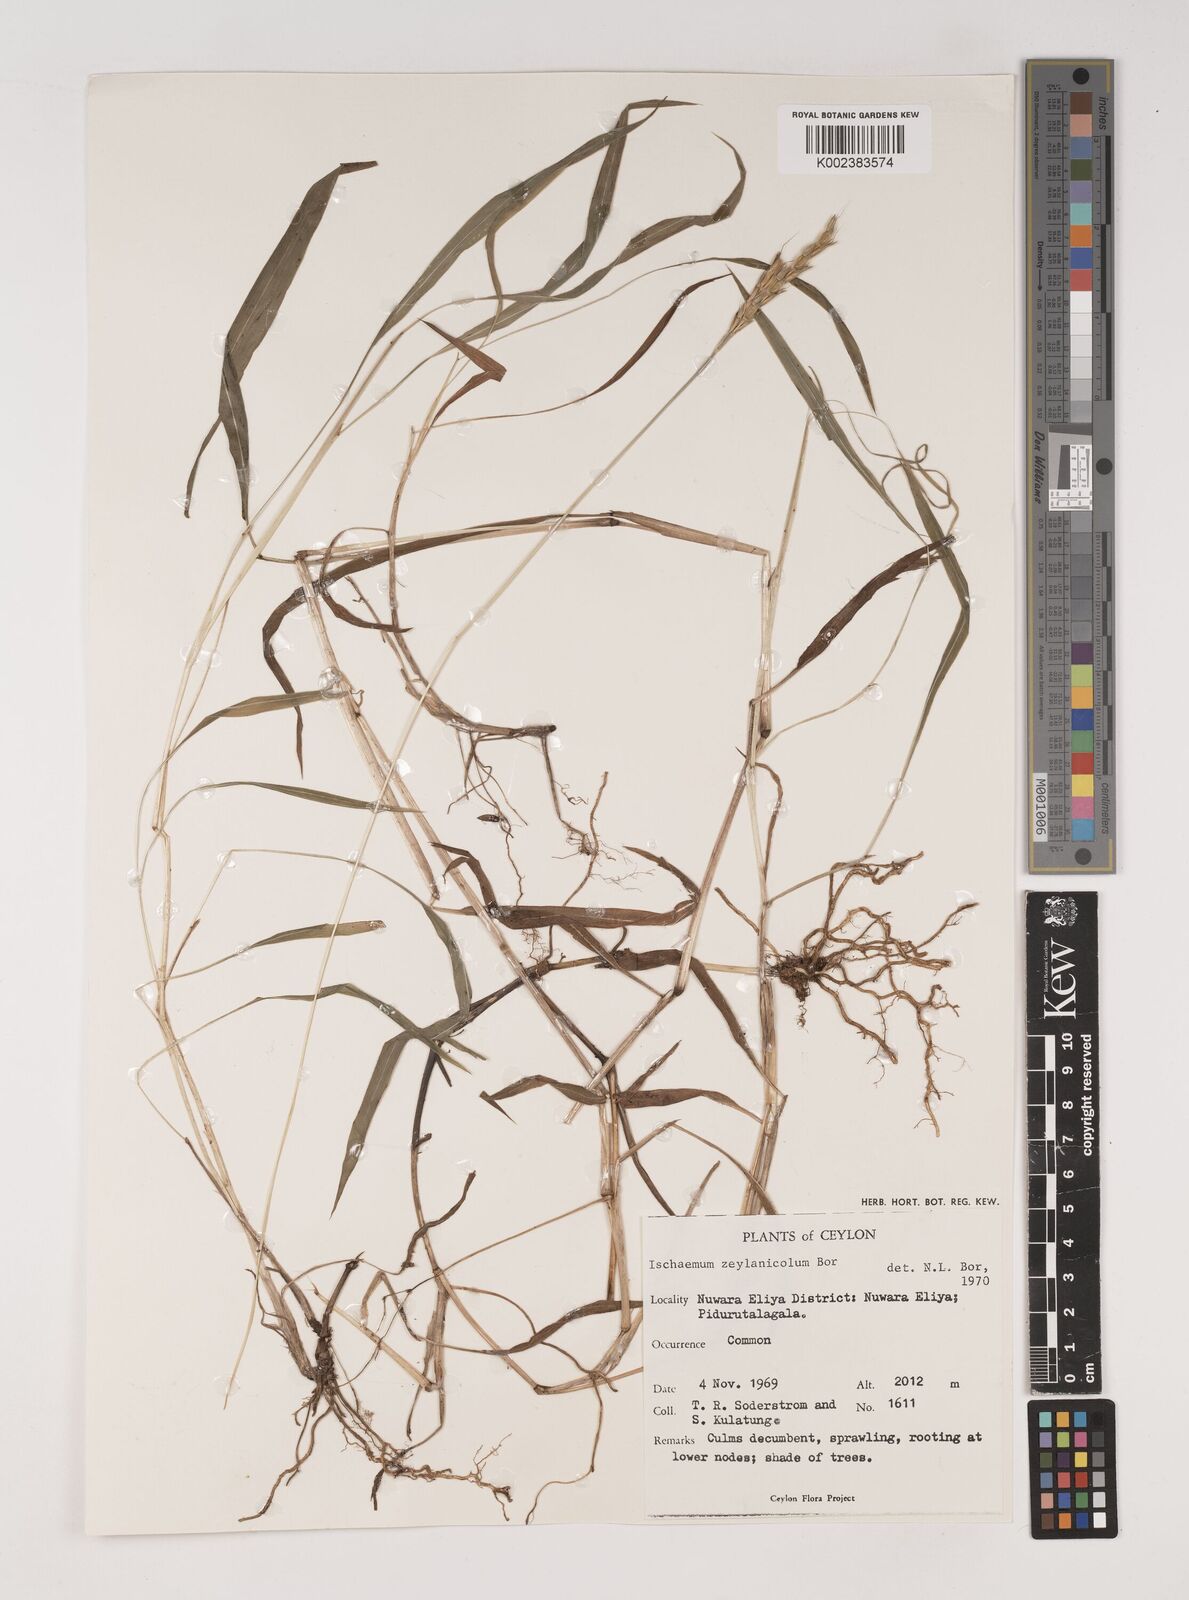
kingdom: Plantae
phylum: Tracheophyta
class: Liliopsida
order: Poales
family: Poaceae
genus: Ischaemum
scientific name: Ischaemum zeylanicola
